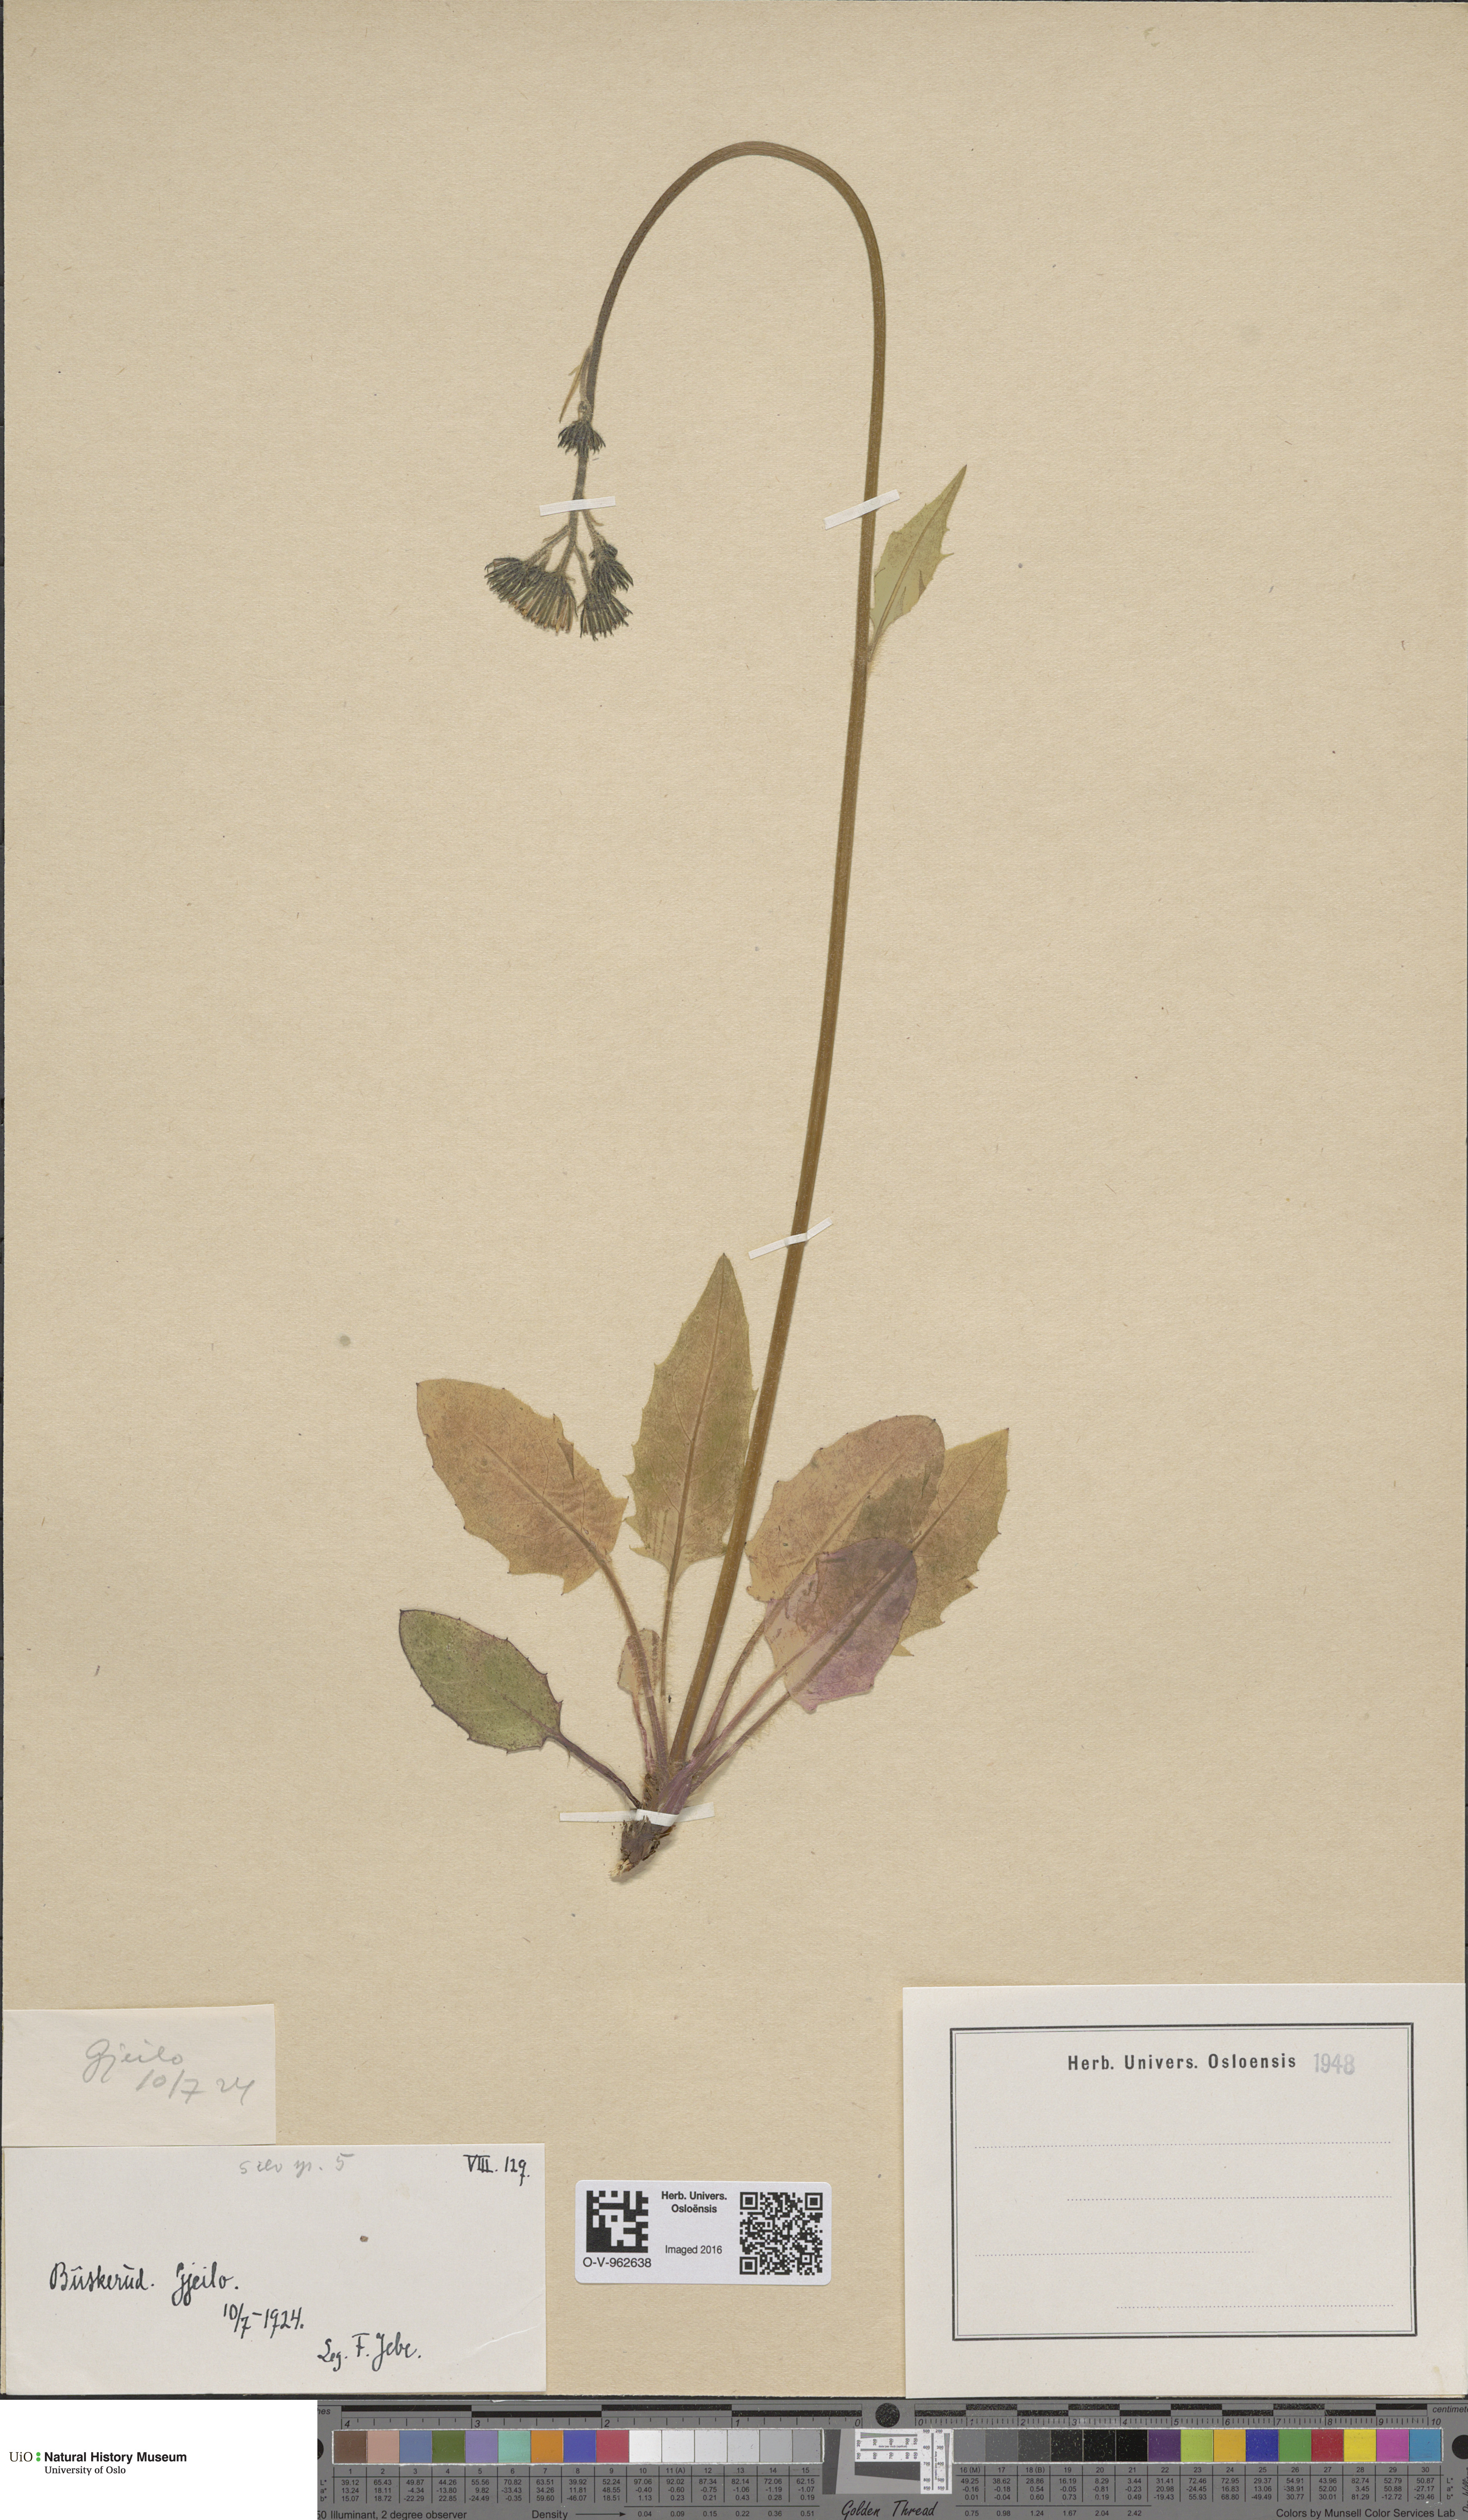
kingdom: Plantae
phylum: Tracheophyta
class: Magnoliopsida
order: Asterales
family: Asteraceae
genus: Hieracium
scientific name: Hieracium
